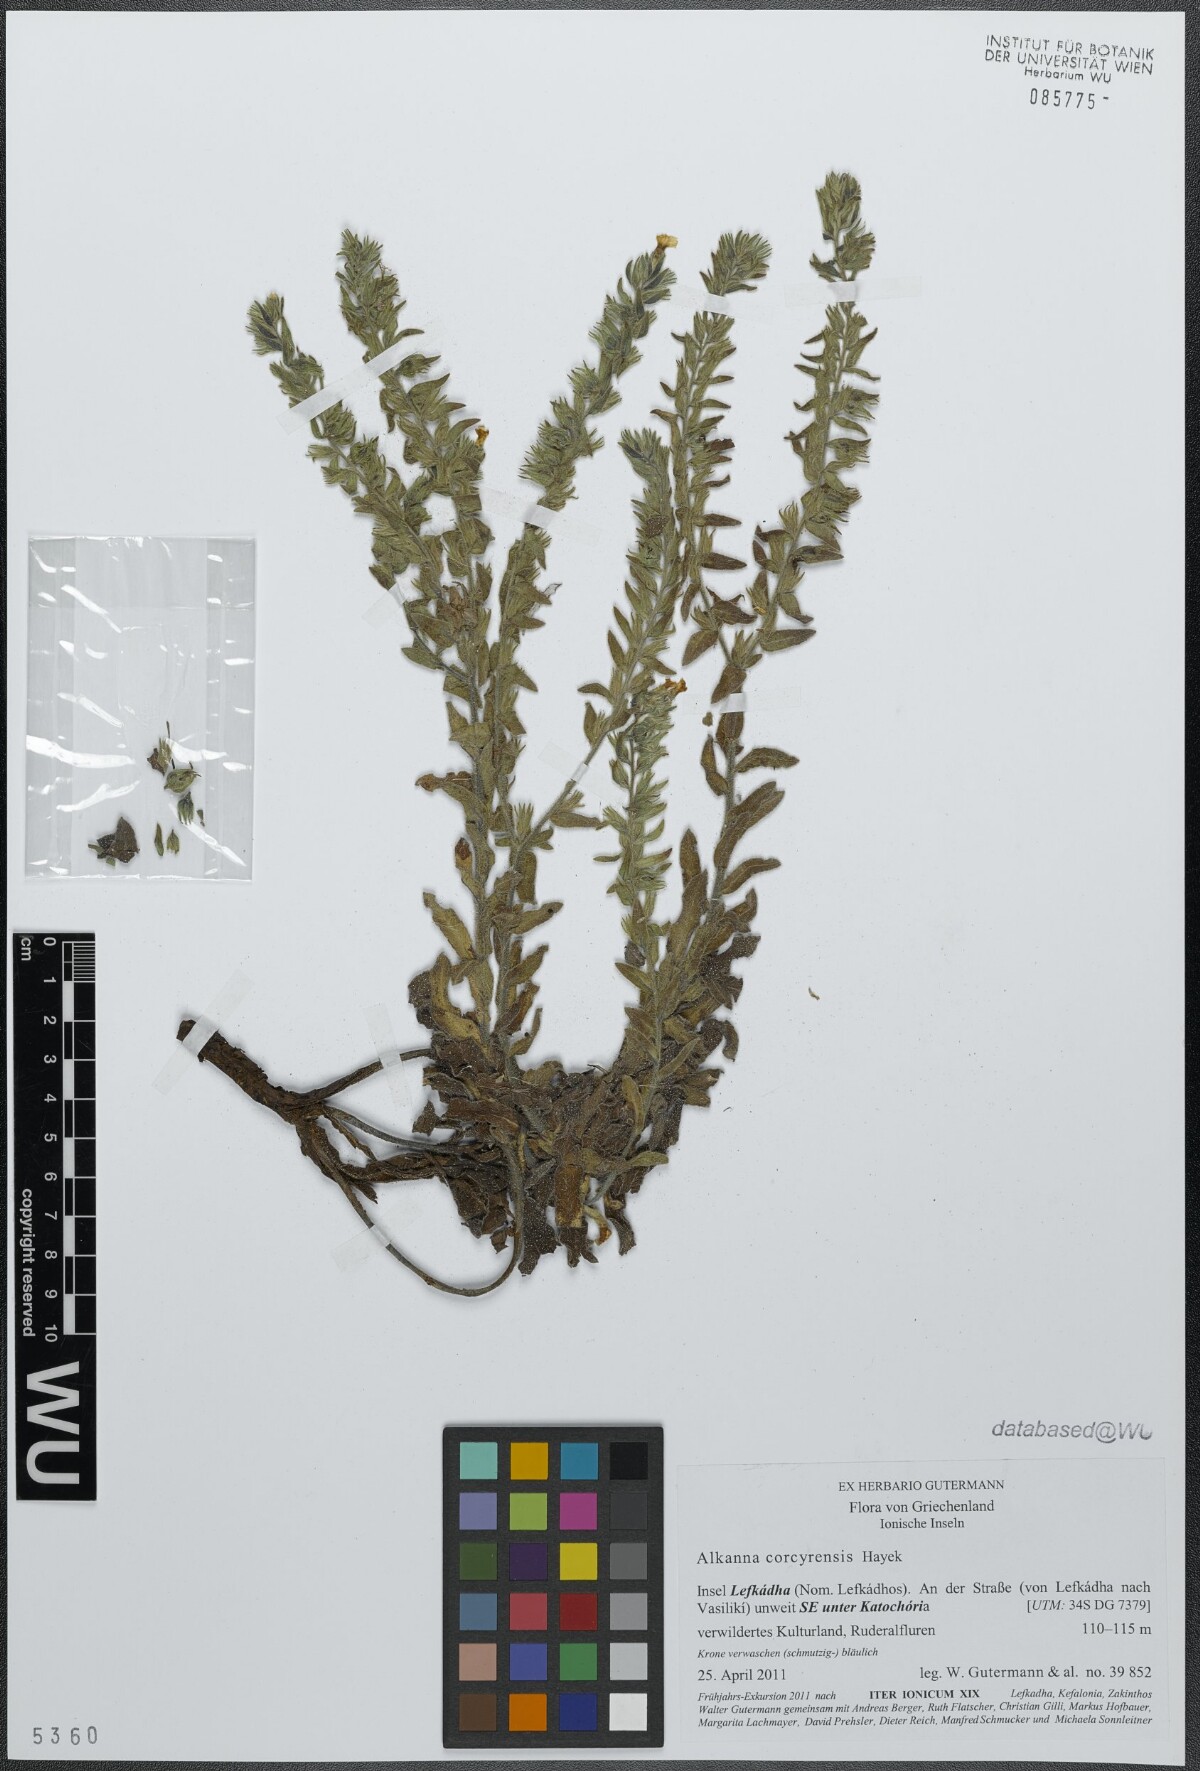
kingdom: Plantae
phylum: Tracheophyta
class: Magnoliopsida
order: Boraginales
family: Boraginaceae
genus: Alkanna
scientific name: Alkanna corcyrensis
